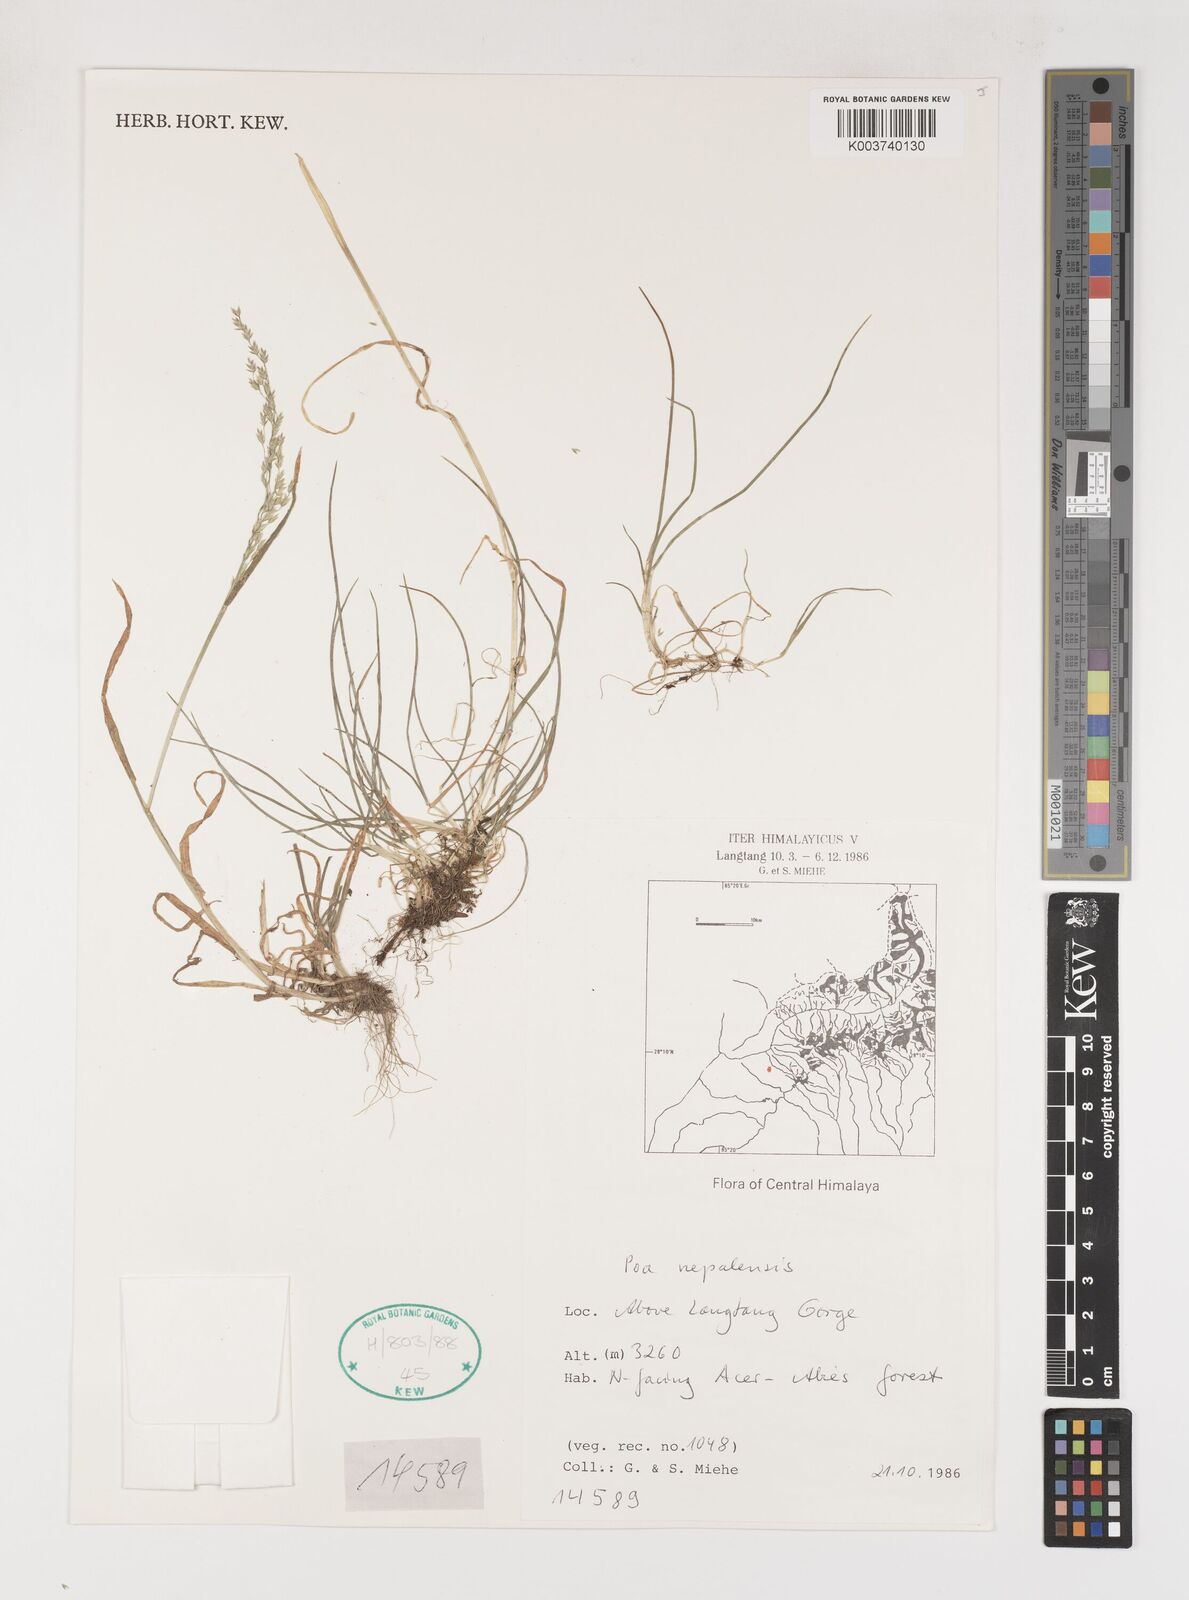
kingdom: Plantae
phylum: Tracheophyta
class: Liliopsida
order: Poales
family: Poaceae
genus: Poa
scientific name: Poa nepalensis
